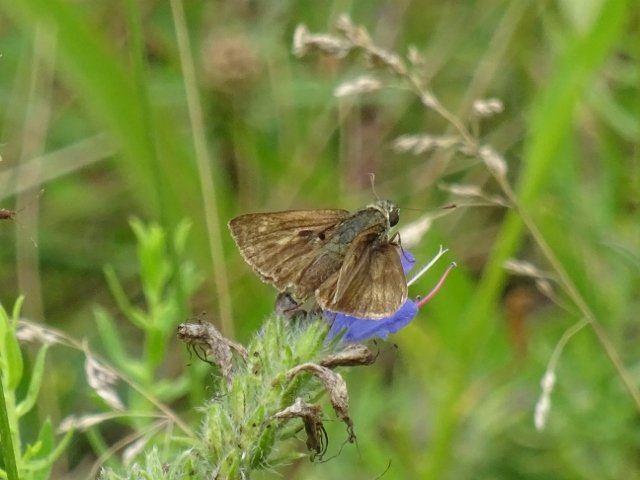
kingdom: Animalia
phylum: Arthropoda
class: Insecta
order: Lepidoptera
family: Hesperiidae
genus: Polites
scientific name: Polites egeremet
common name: Northern Broken-Dash
